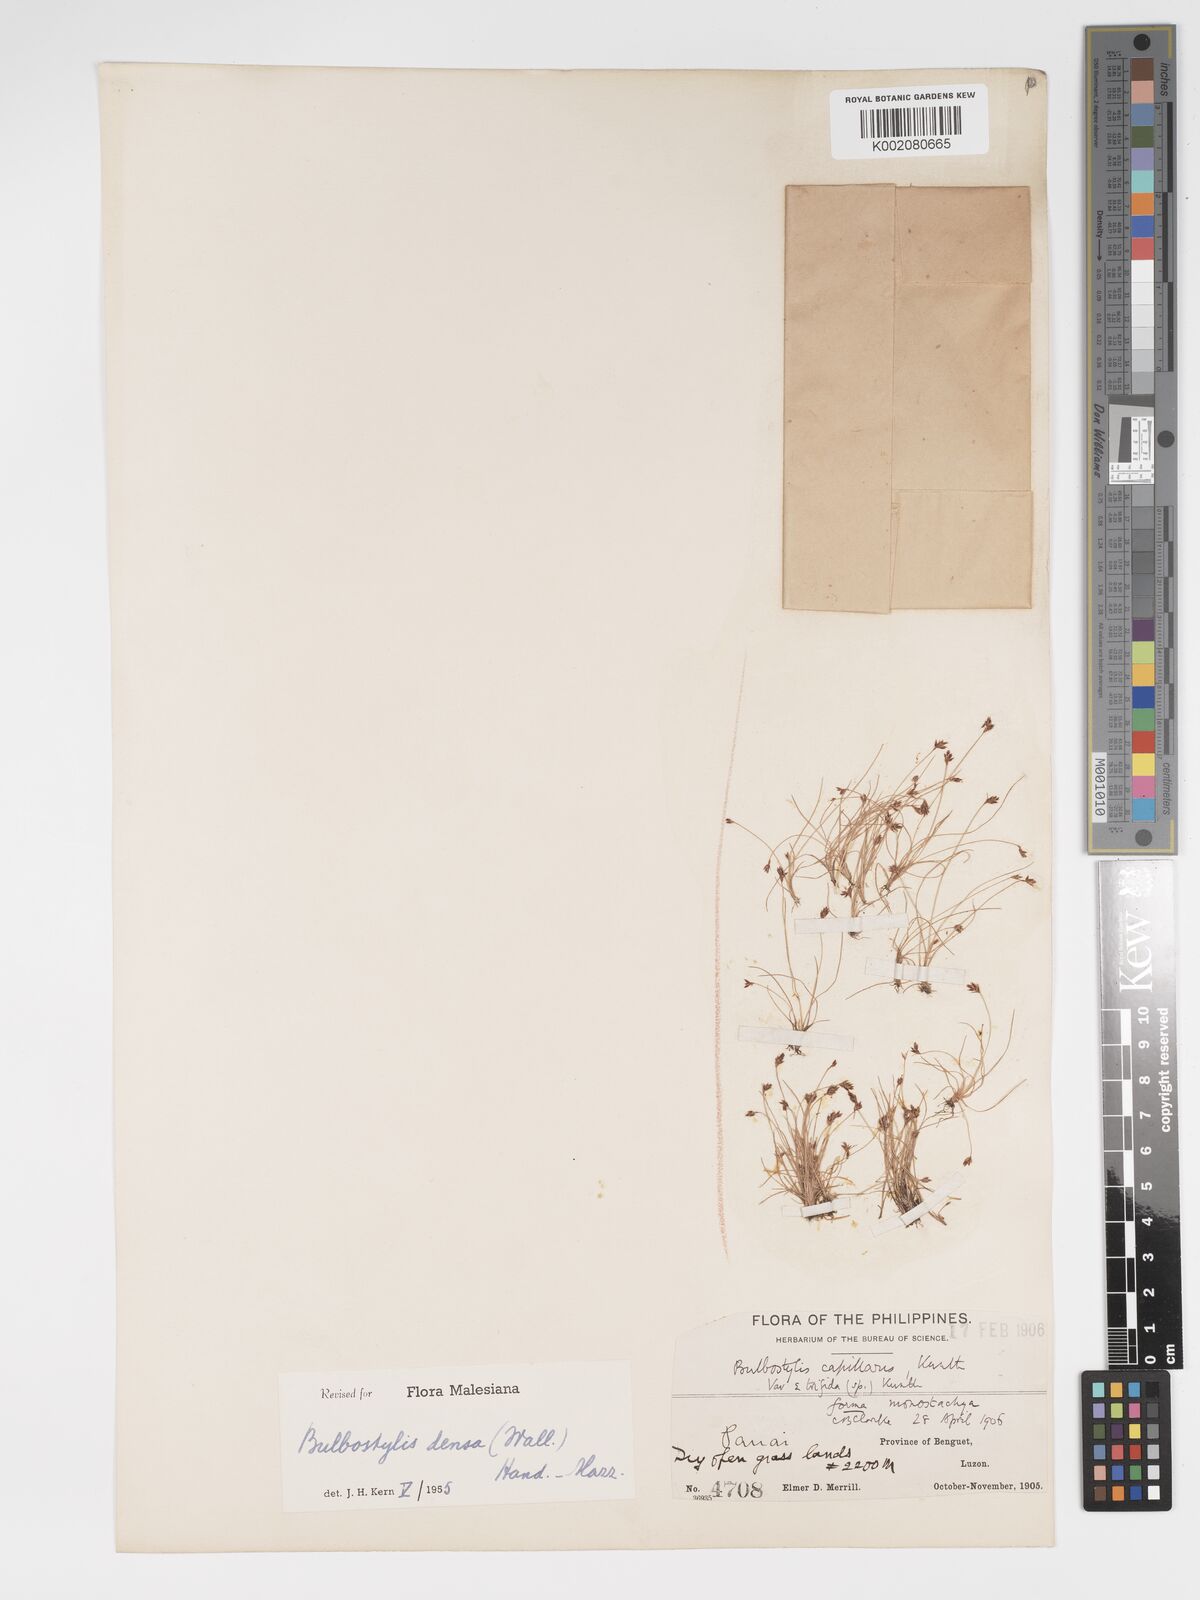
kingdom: Plantae
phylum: Tracheophyta
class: Liliopsida
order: Poales
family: Cyperaceae
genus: Bulbostylis
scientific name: Bulbostylis densa
